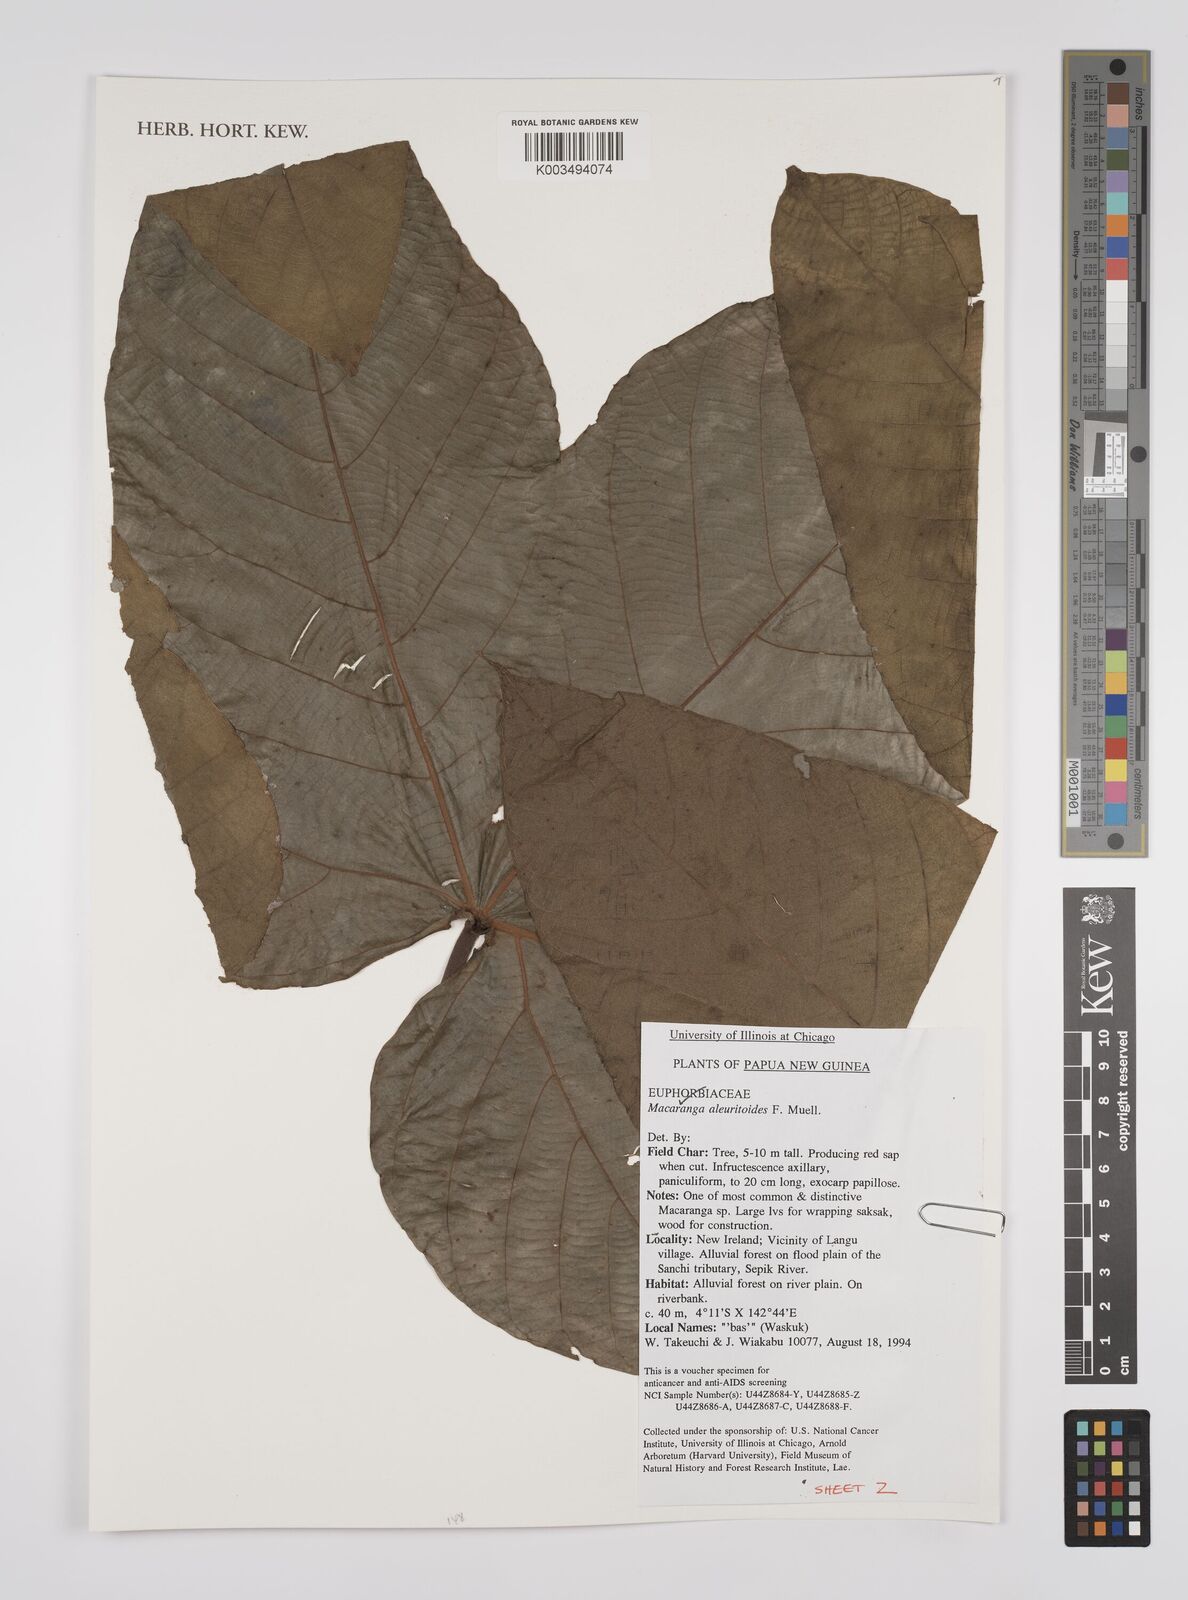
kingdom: Plantae
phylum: Tracheophyta
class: Magnoliopsida
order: Malpighiales
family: Euphorbiaceae
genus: Macaranga
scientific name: Macaranga aleuritoides
